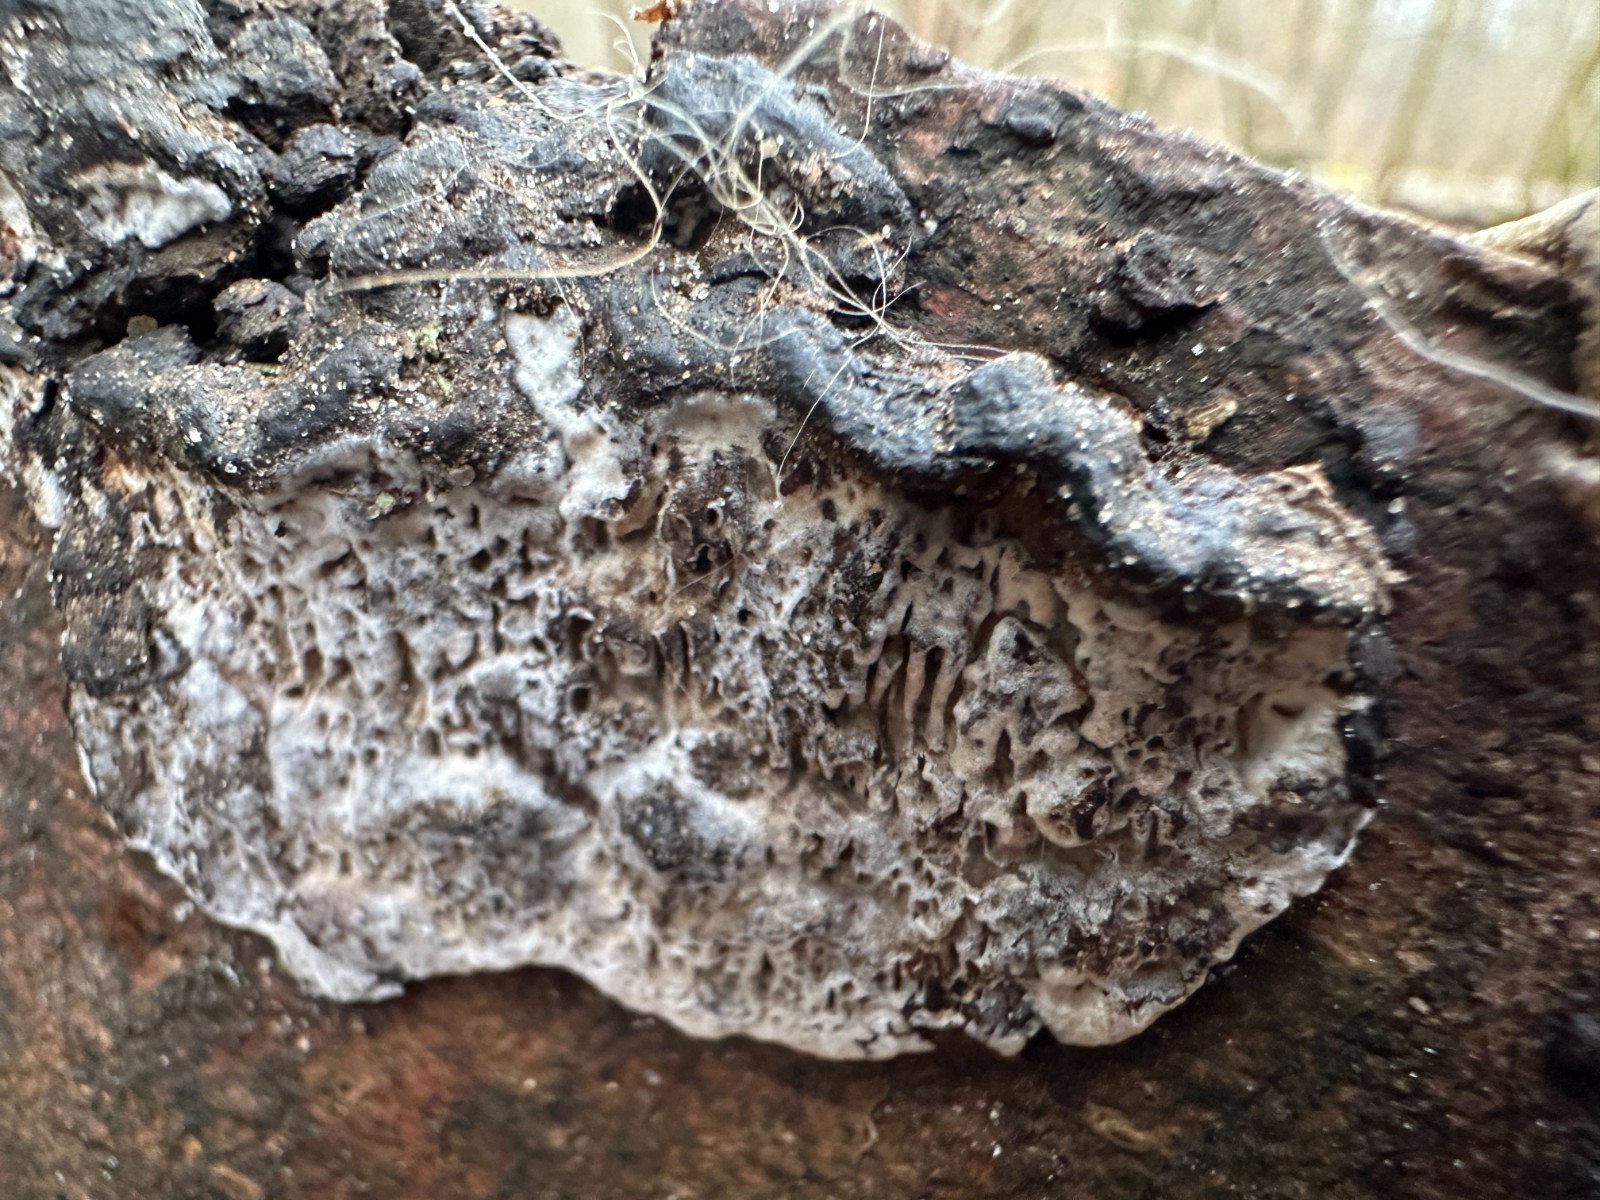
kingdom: Fungi
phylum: Basidiomycota
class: Agaricomycetes
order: Polyporales
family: Polyporaceae
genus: Podofomes
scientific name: Podofomes mollis
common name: blød begporesvamp
